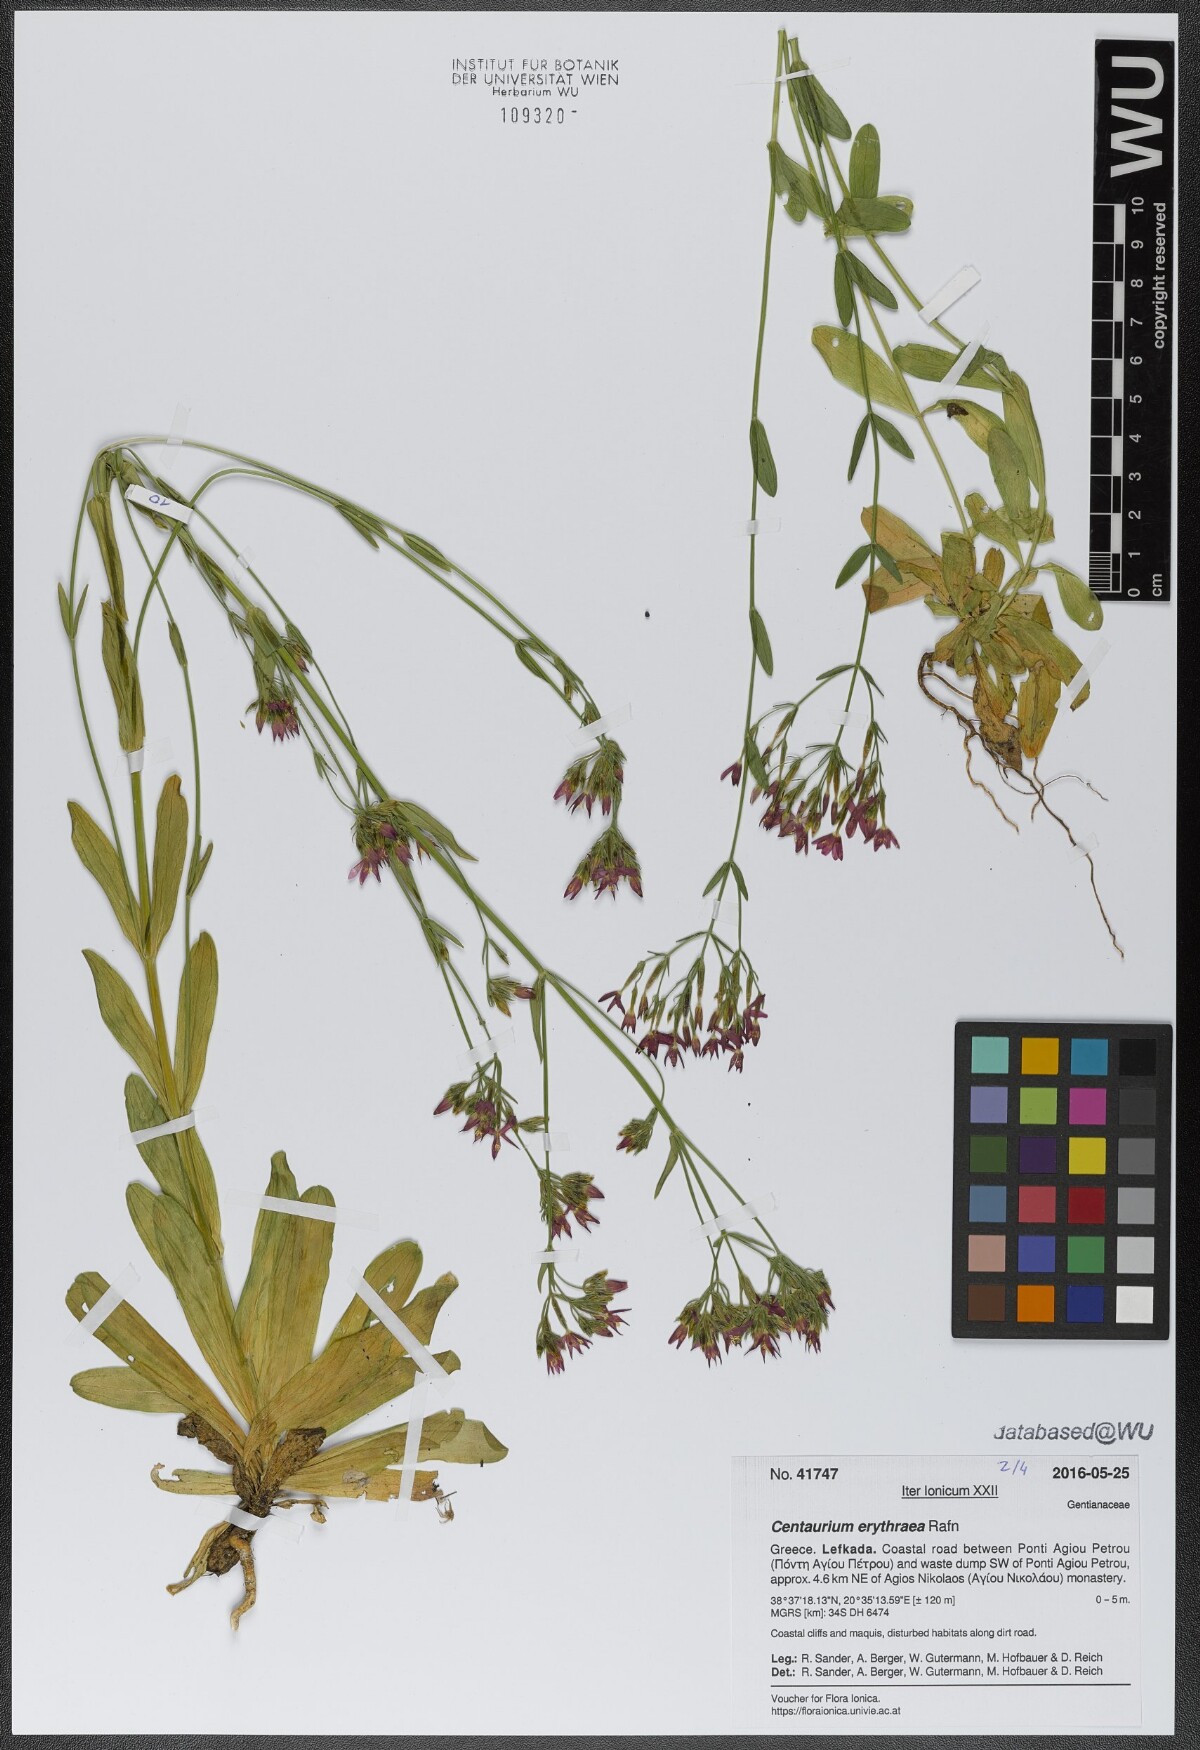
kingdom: Plantae
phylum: Tracheophyta
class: Magnoliopsida
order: Gentianales
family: Gentianaceae
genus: Centaurium
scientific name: Centaurium erythraea
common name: Common centaury
